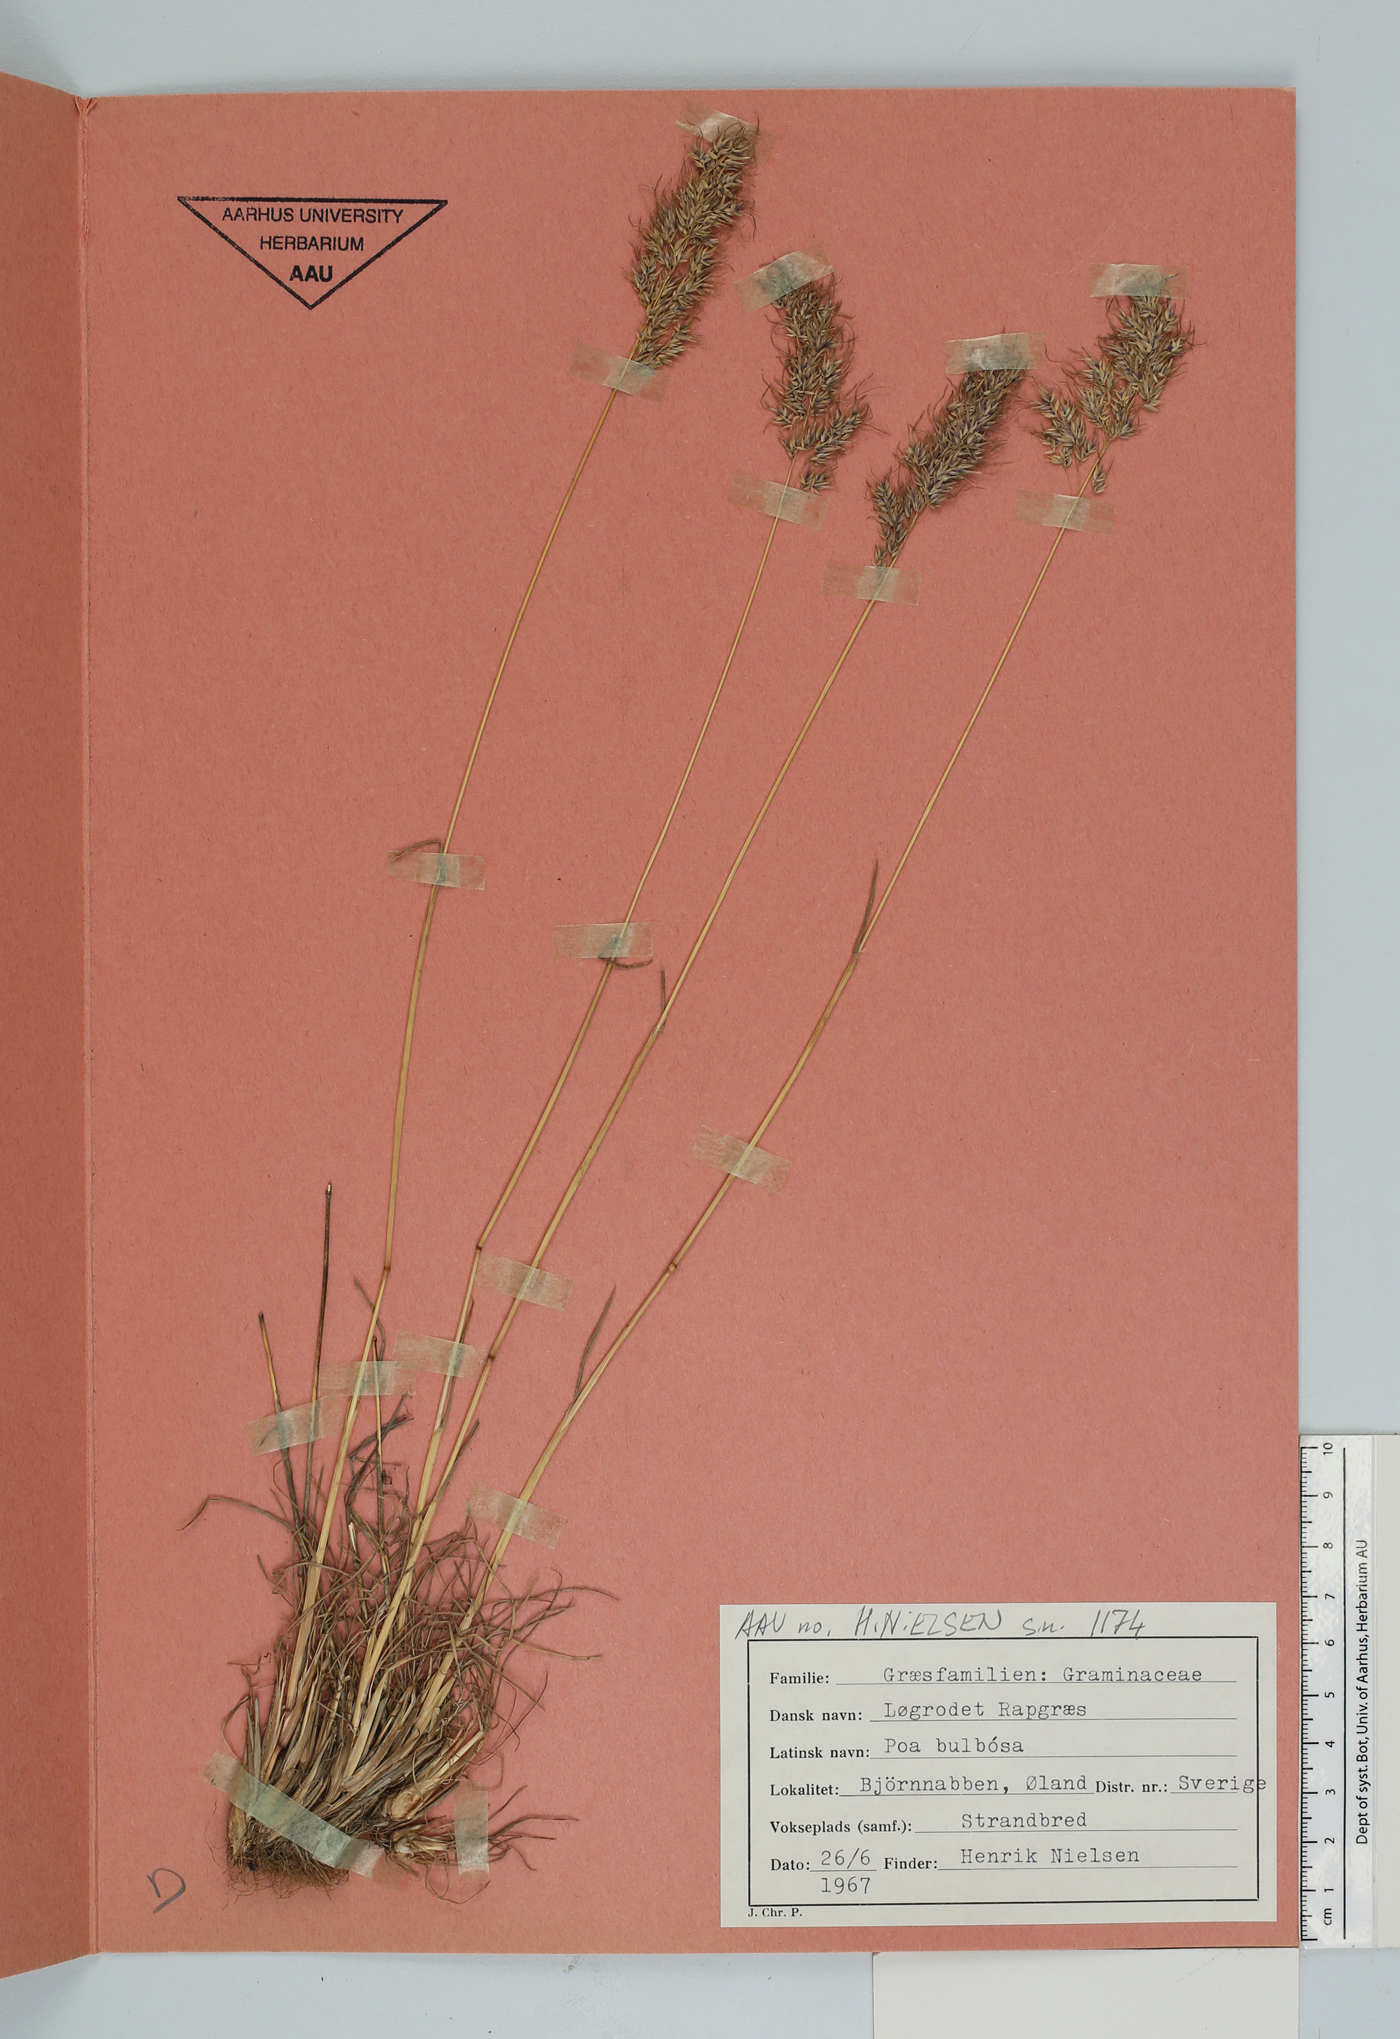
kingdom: Plantae
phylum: Tracheophyta
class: Liliopsida
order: Poales
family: Poaceae
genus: Poa
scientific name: Poa bulbosa
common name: Bulbous bluegrass
